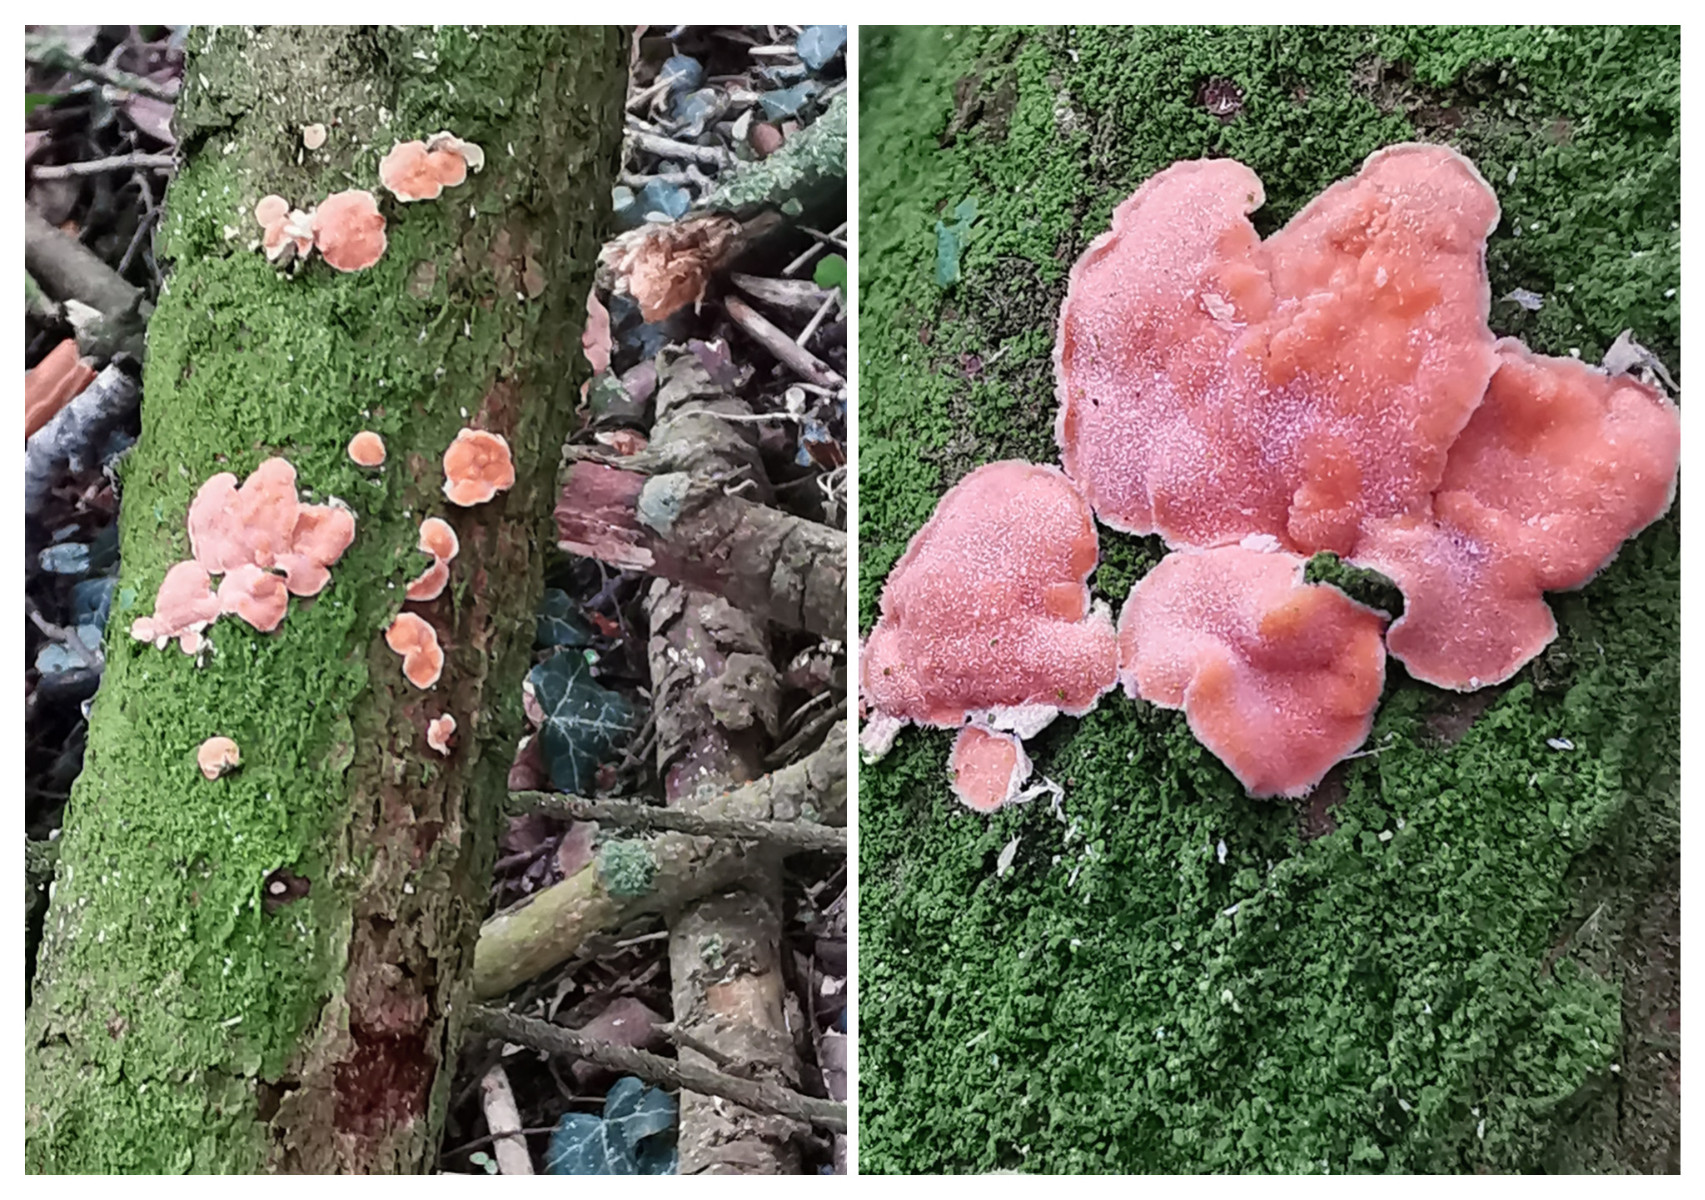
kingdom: Fungi
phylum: Basidiomycota
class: Agaricomycetes
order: Russulales
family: Stereaceae
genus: Aleurodiscus
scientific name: Aleurodiscus amorphus
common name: orange skiveskorpe
